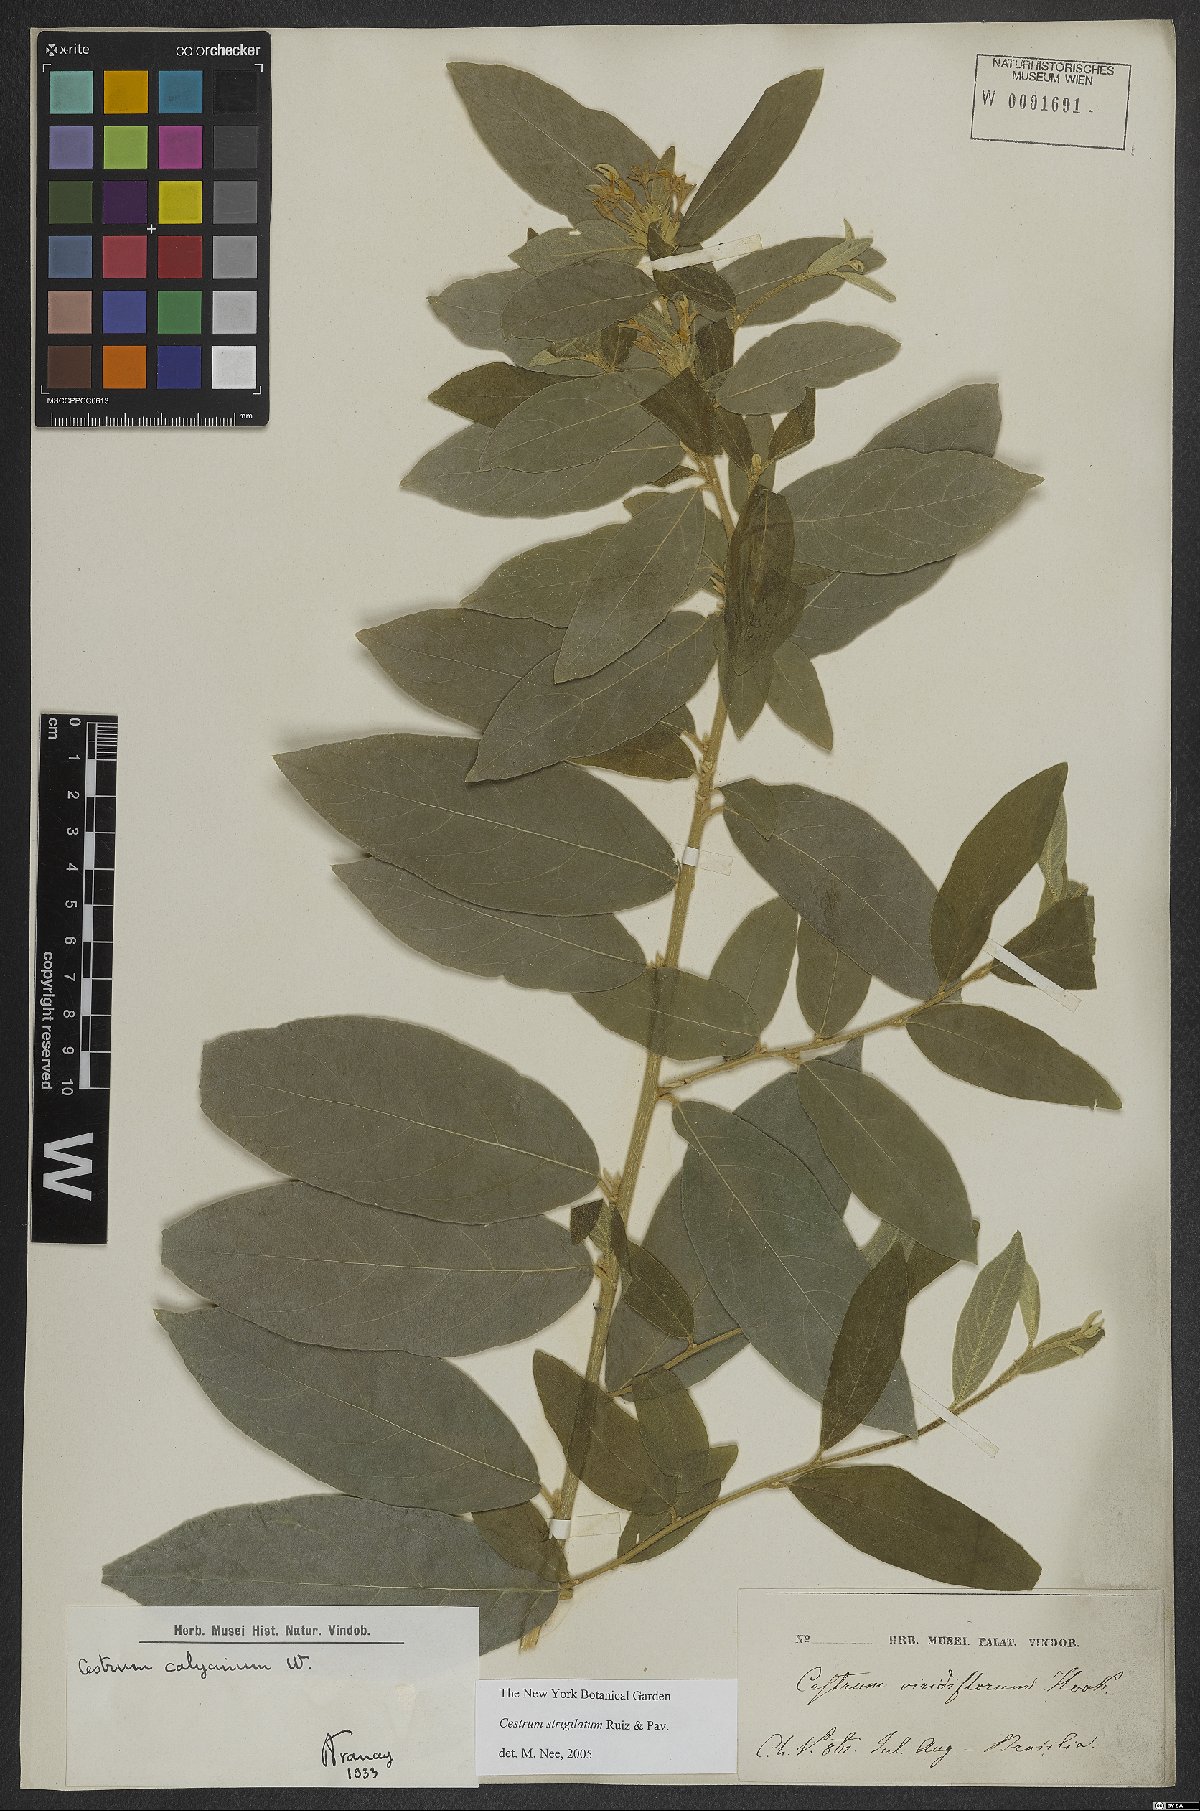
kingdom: Plantae
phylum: Tracheophyta
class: Magnoliopsida
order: Solanales
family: Solanaceae
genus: Cestrum
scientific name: Cestrum strigillatum
